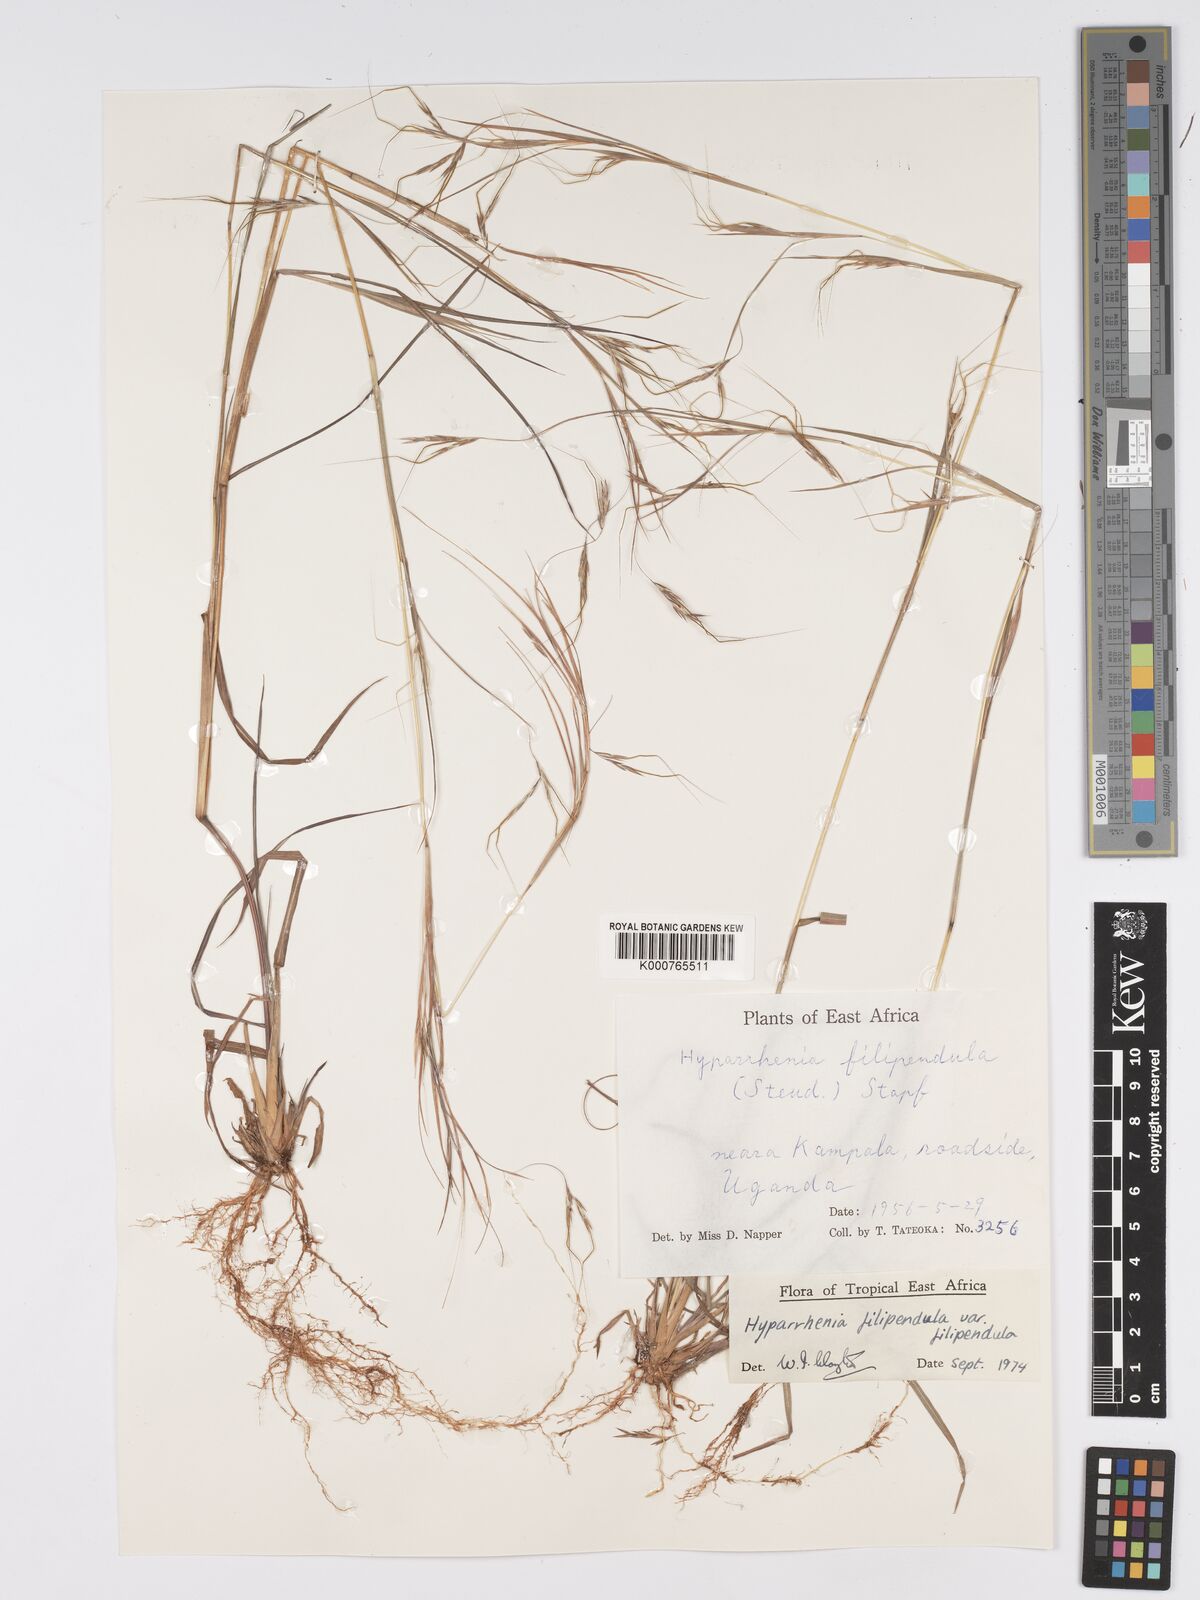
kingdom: Plantae
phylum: Tracheophyta
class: Liliopsida
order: Poales
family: Poaceae
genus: Hyparrhenia
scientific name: Hyparrhenia filipendula
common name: Tambookie grass
